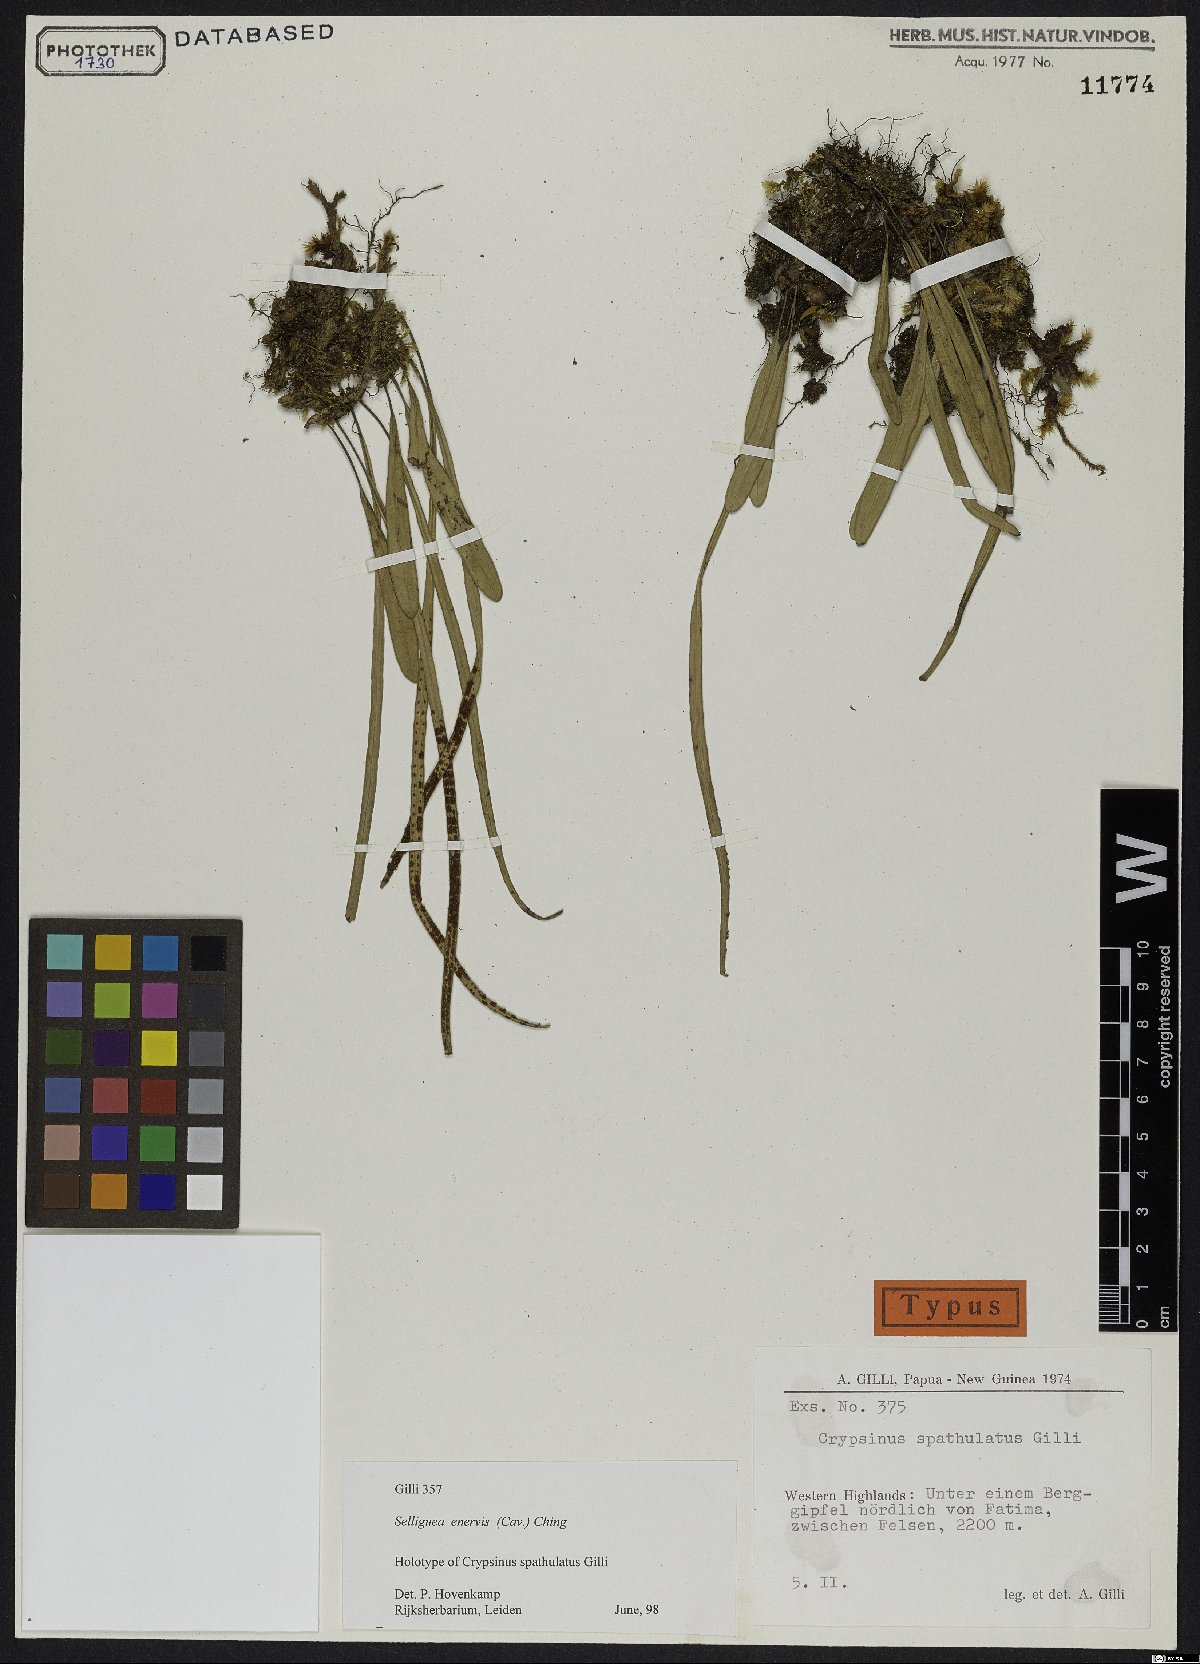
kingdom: Plantae
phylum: Tracheophyta
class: Polypodiopsida
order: Polypodiales
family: Polypodiaceae
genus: Selliguea
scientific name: Selliguea enervis
